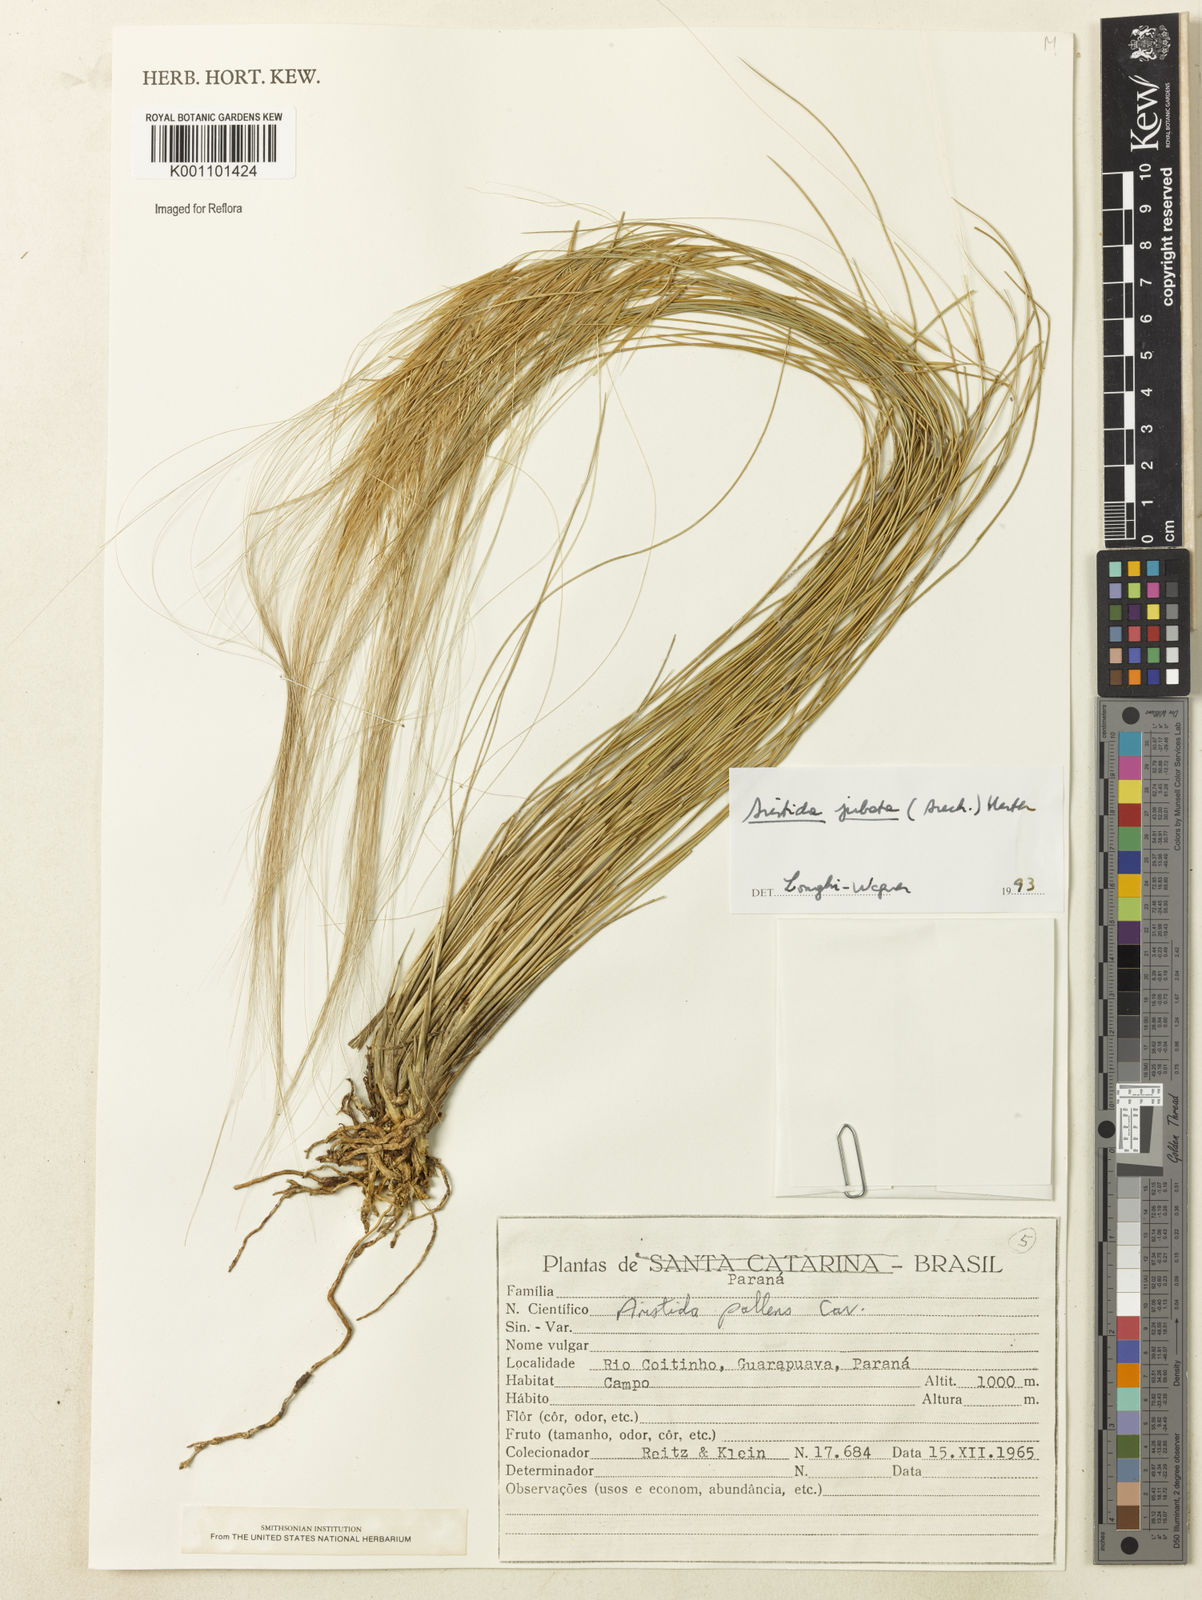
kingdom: Plantae
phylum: Tracheophyta
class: Liliopsida
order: Poales
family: Poaceae
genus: Aristida
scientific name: Aristida jubata
